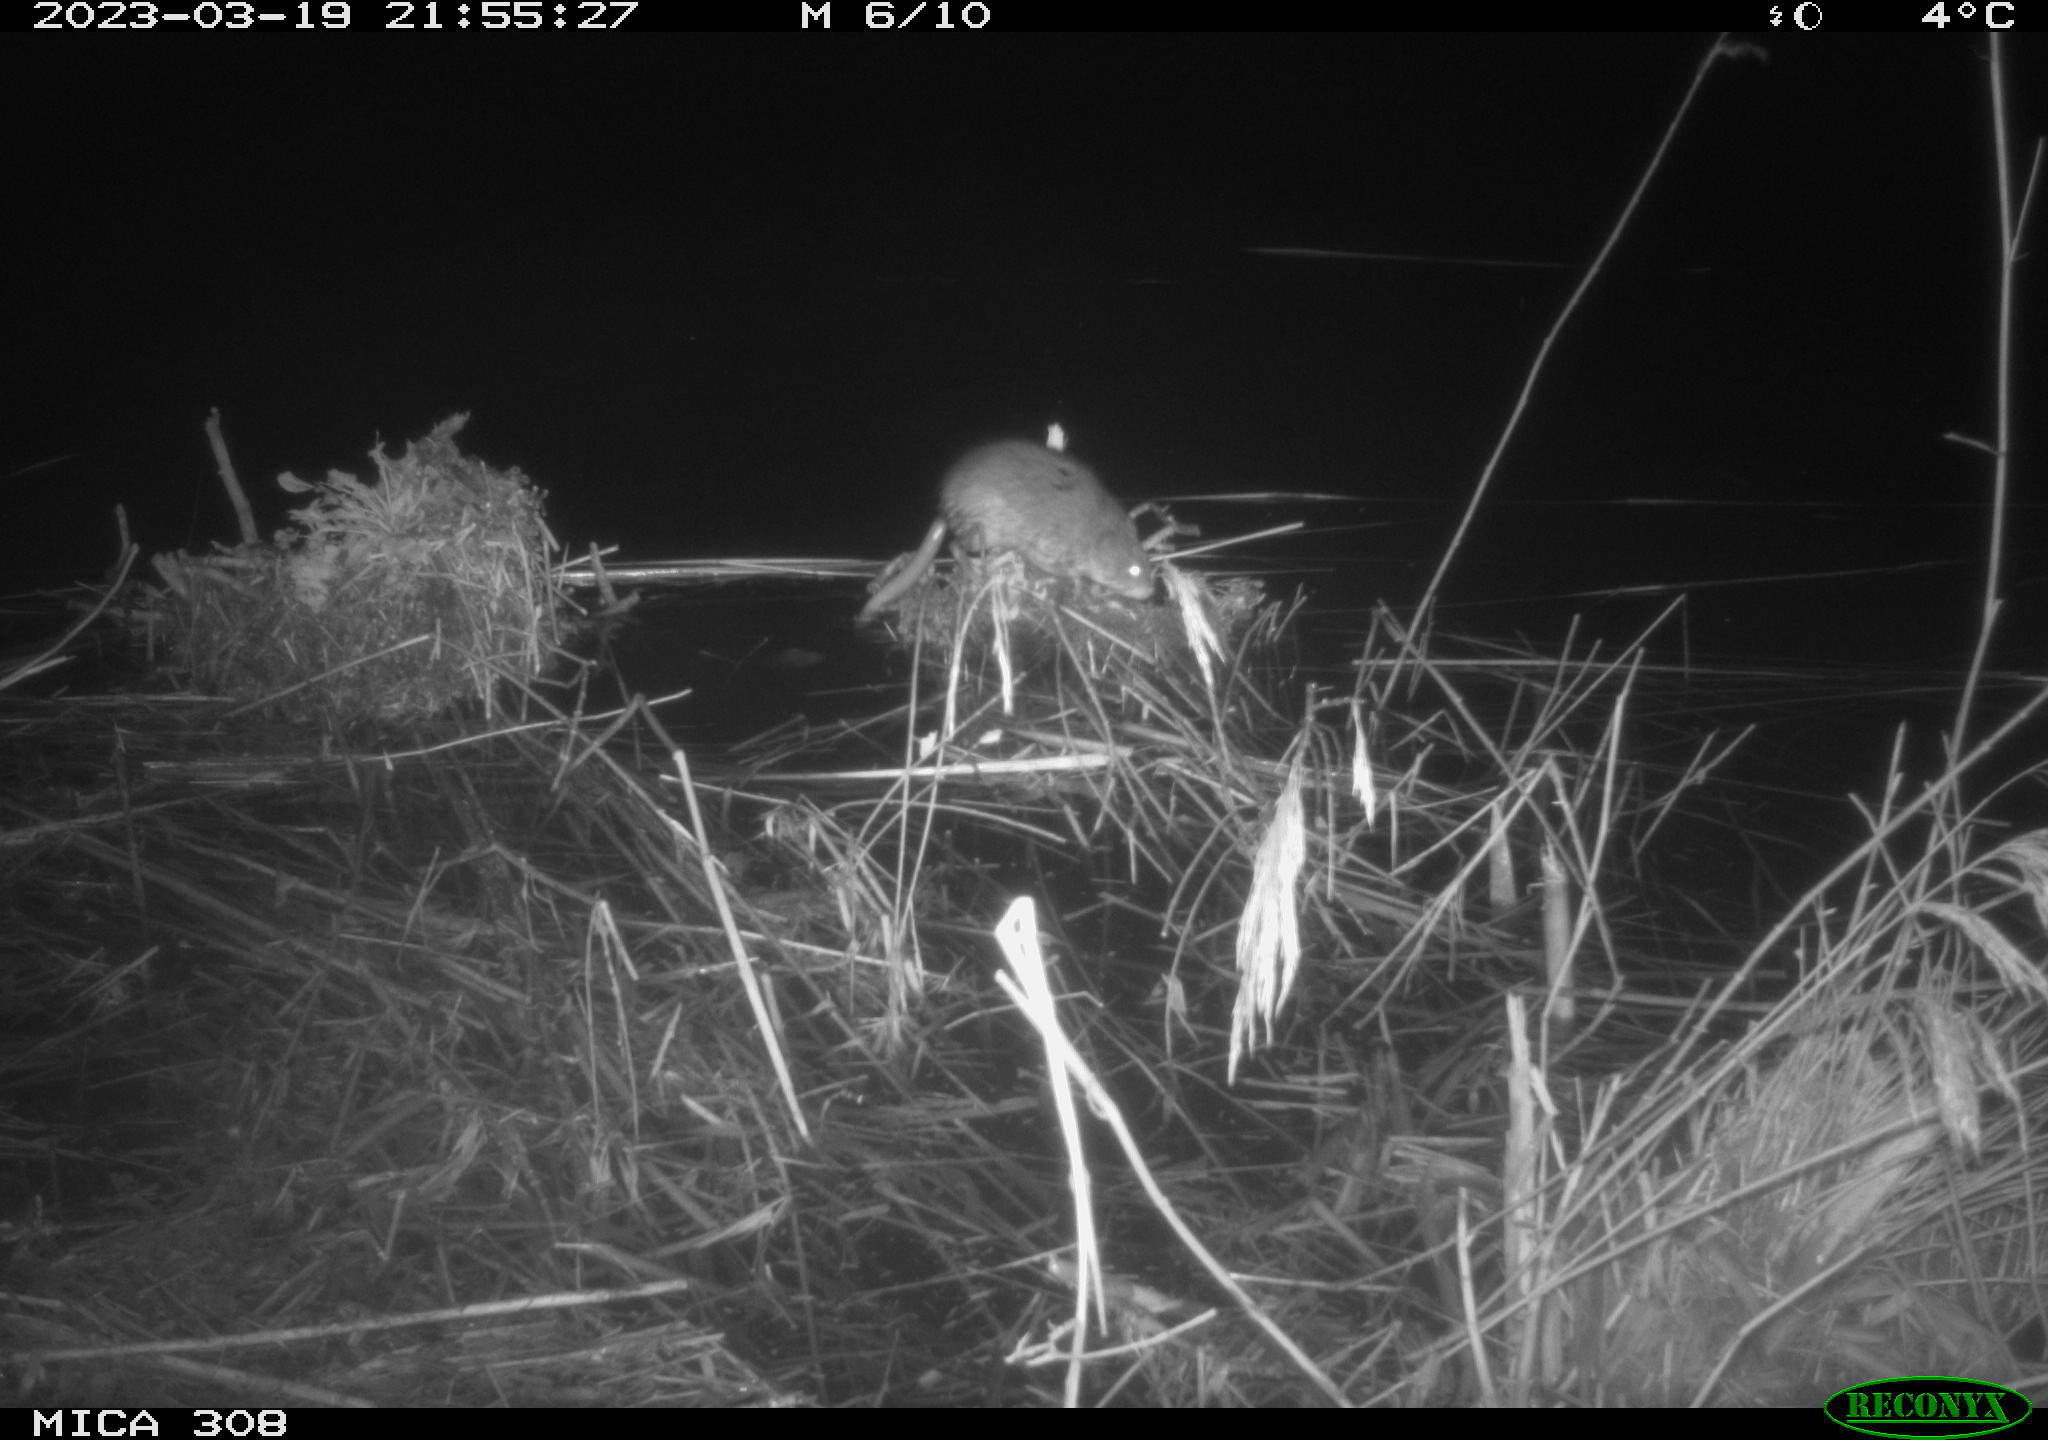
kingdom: Animalia
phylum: Chordata
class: Mammalia
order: Rodentia
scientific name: Rodentia
